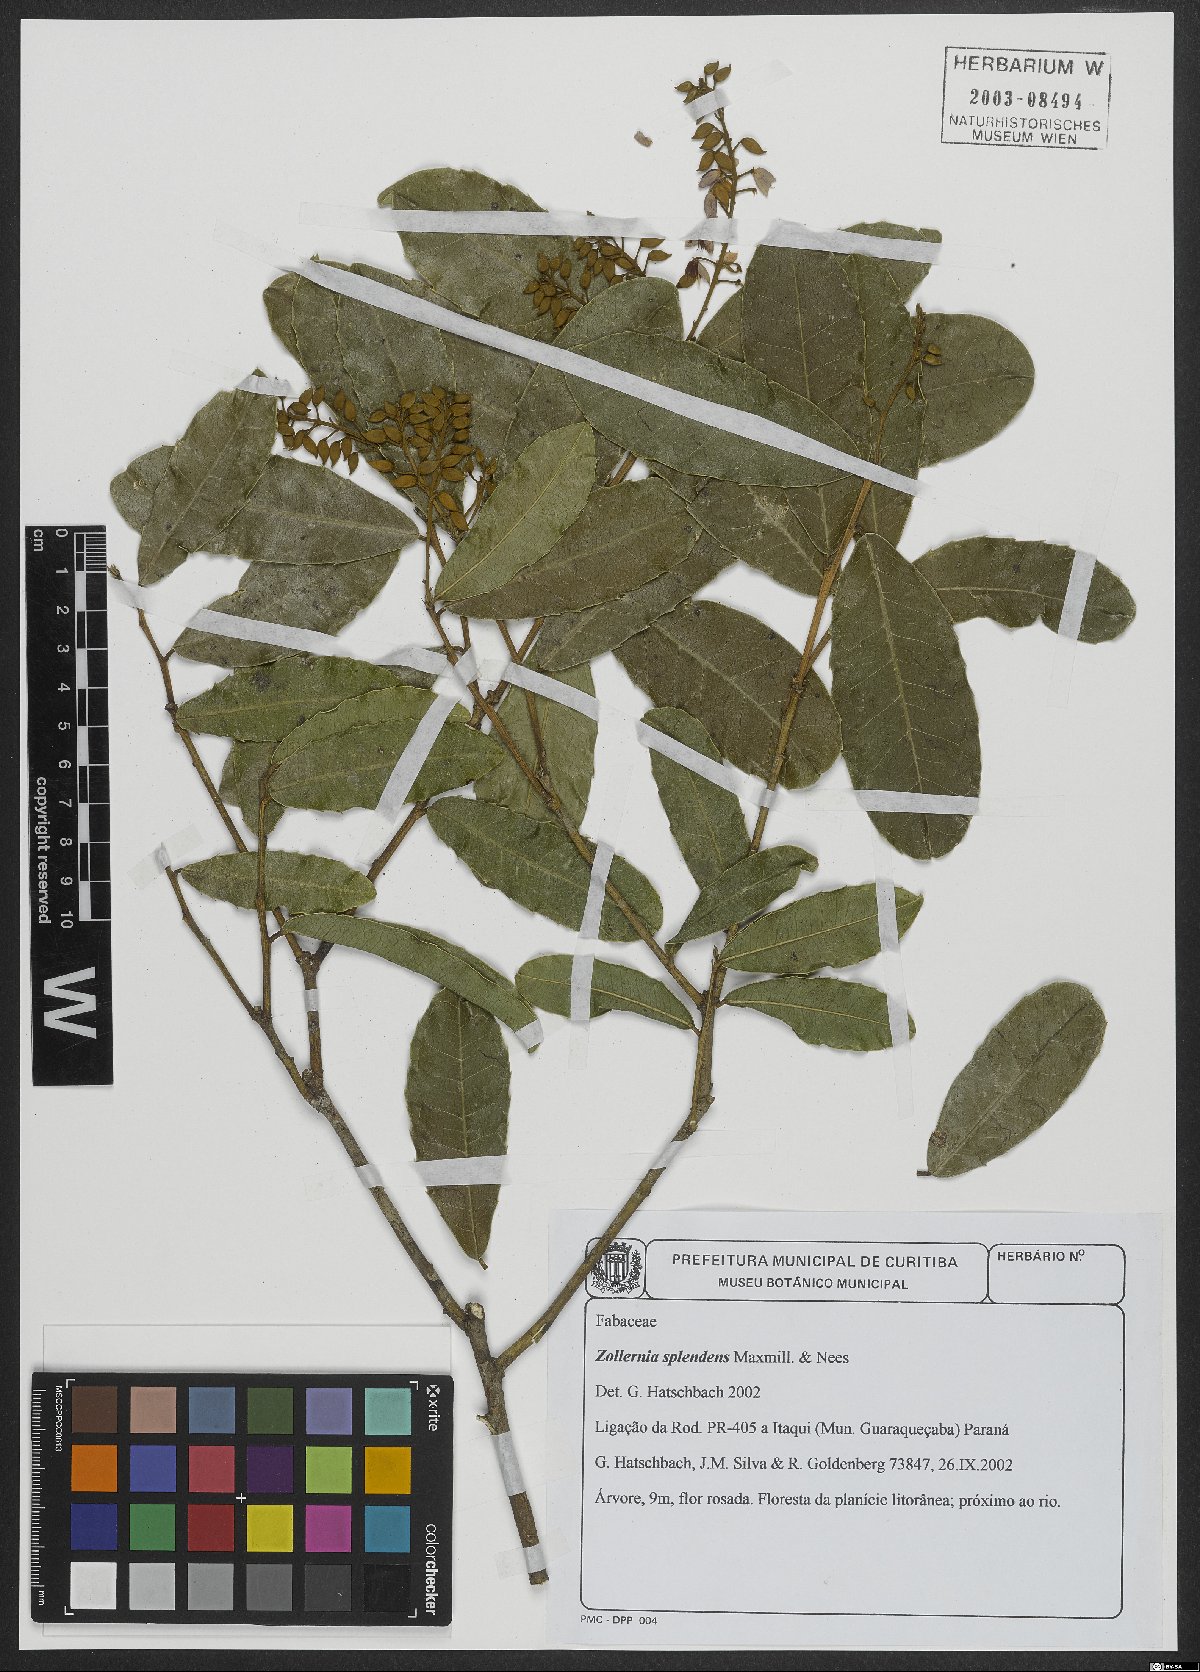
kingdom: Plantae
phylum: Tracheophyta
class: Magnoliopsida
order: Fabales
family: Fabaceae
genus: Zollernia
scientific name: Zollernia glabra
